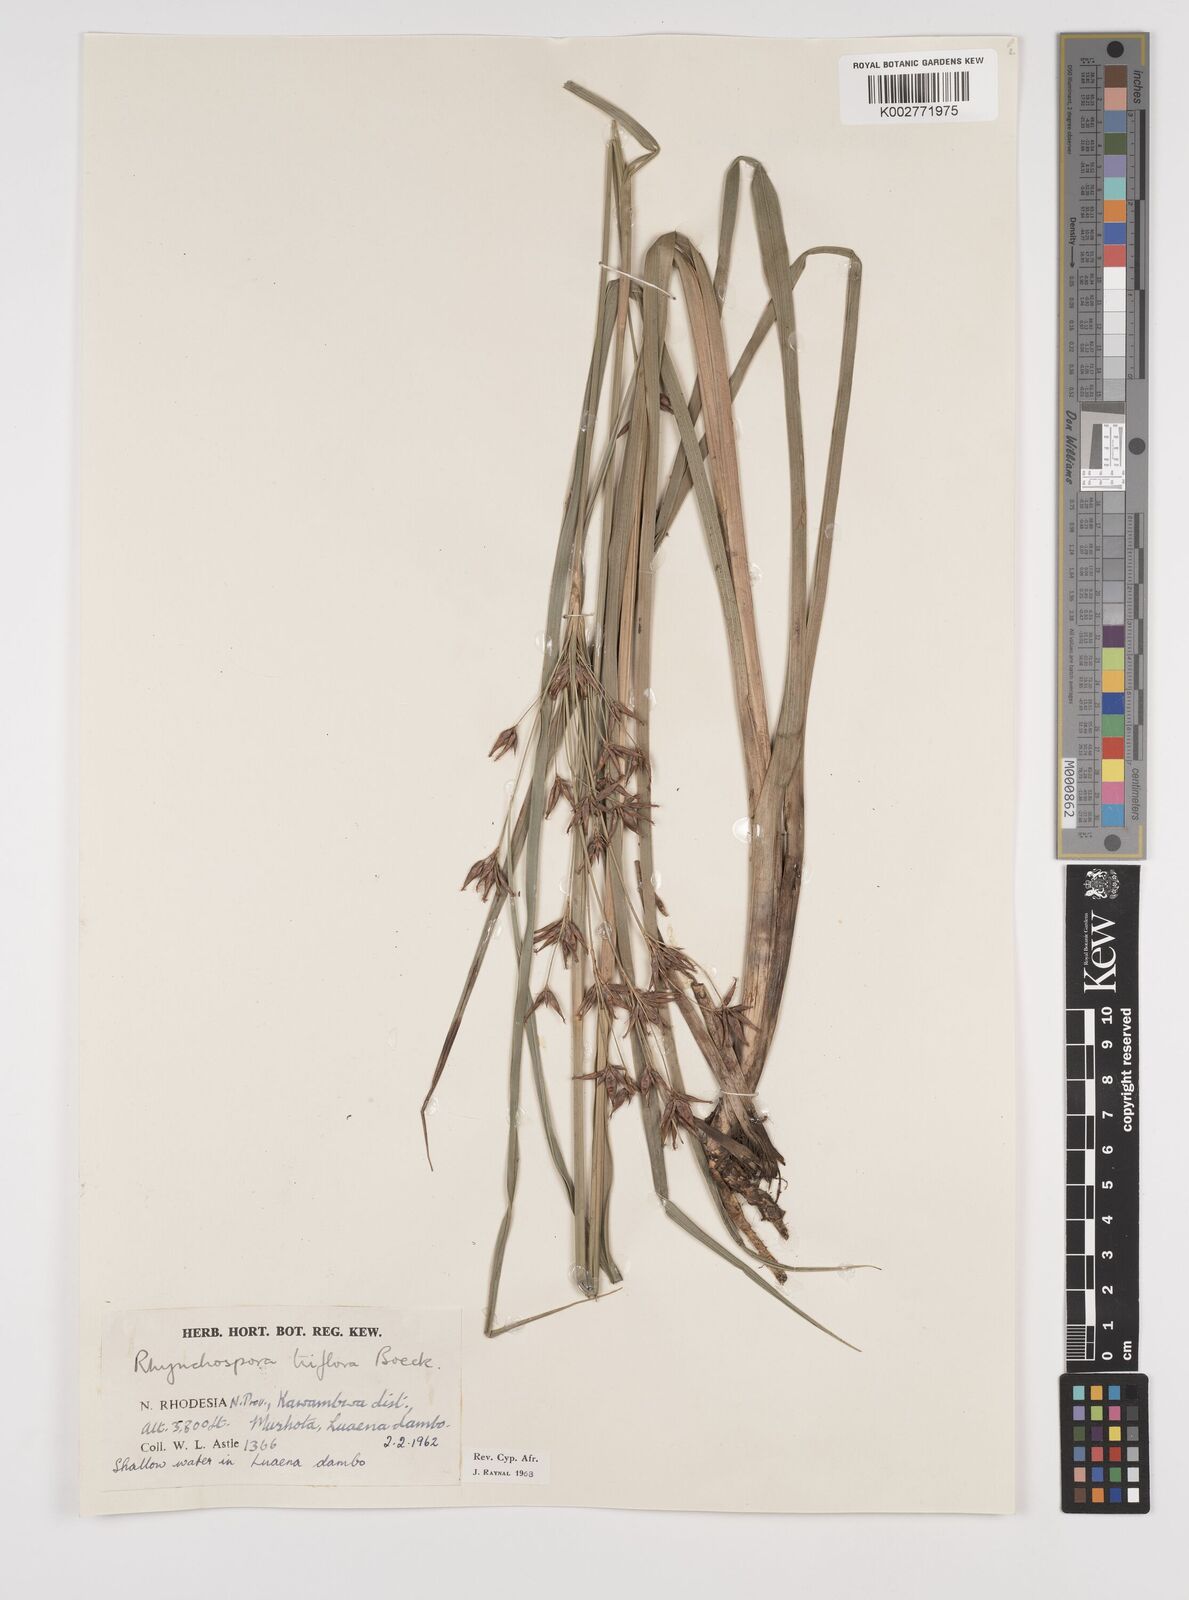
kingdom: Plantae
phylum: Tracheophyta
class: Liliopsida
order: Poales
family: Cyperaceae
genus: Rhynchospora
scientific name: Rhynchospora triflora
